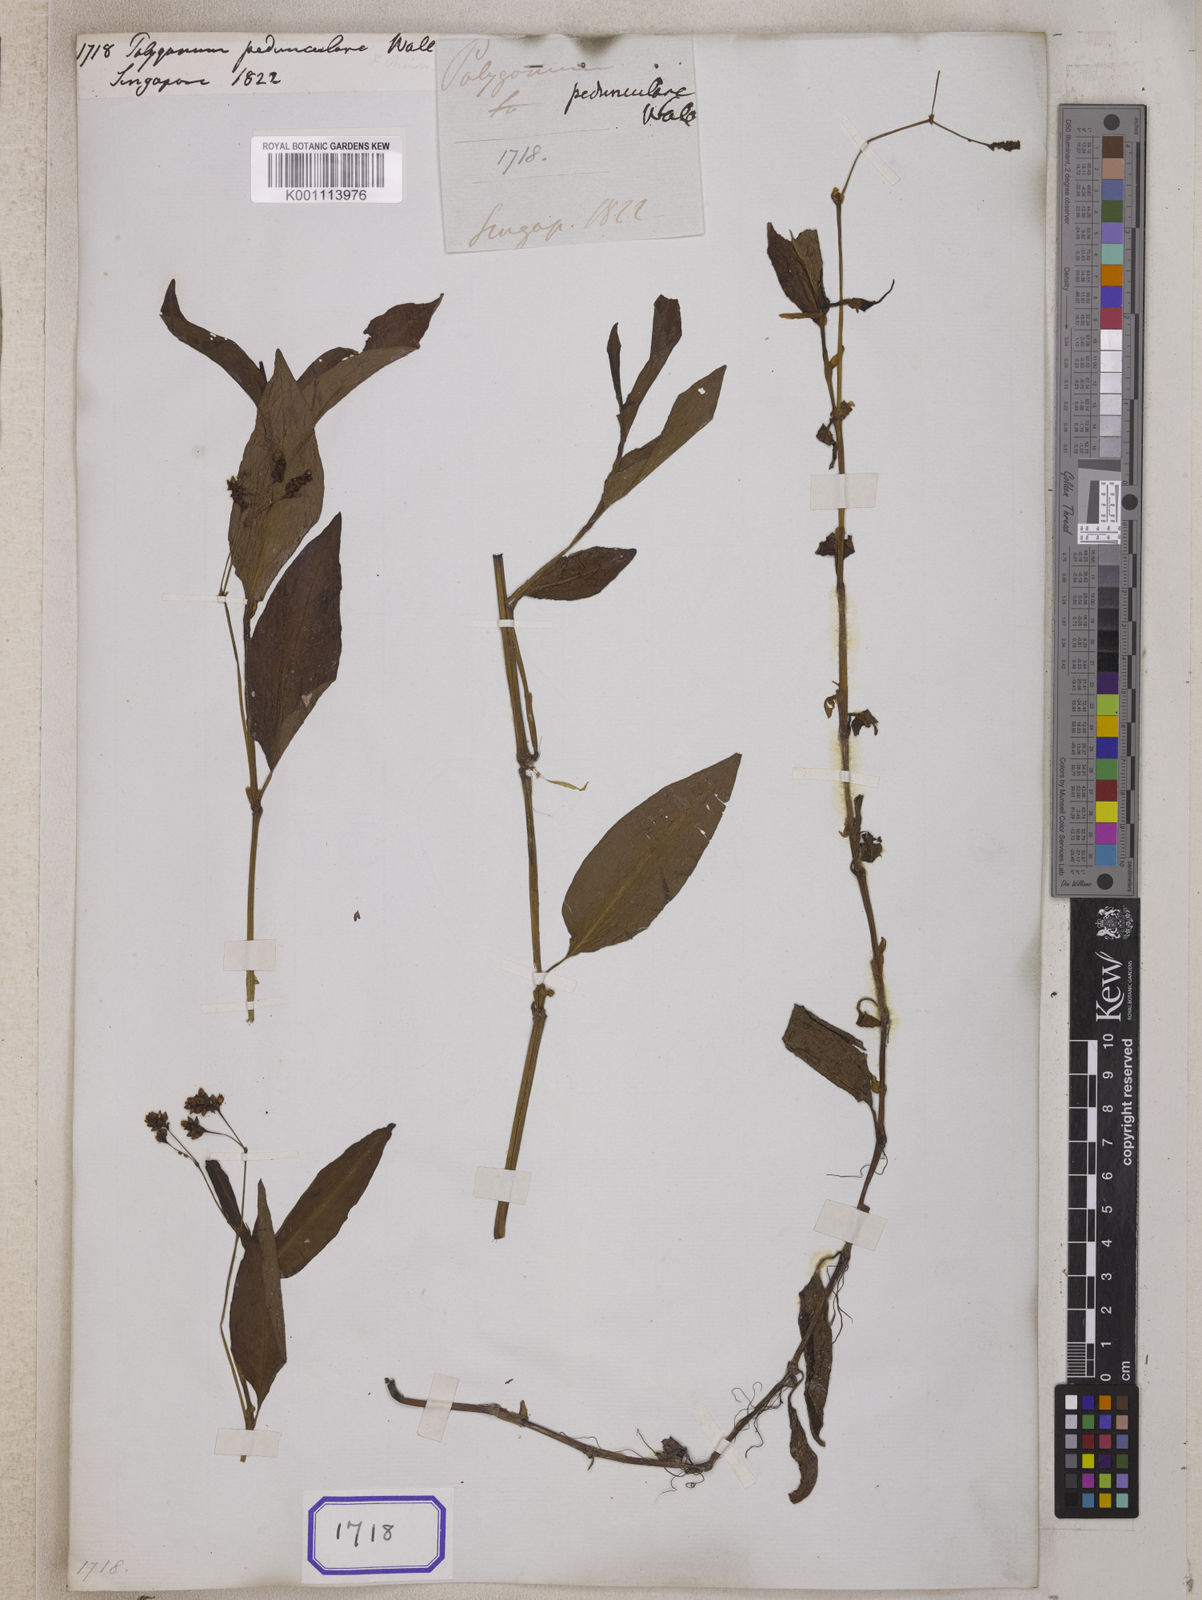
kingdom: Plantae
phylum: Tracheophyta
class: Magnoliopsida
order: Caryophyllales
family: Polygonaceae
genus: Polygonum
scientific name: Polygonum
